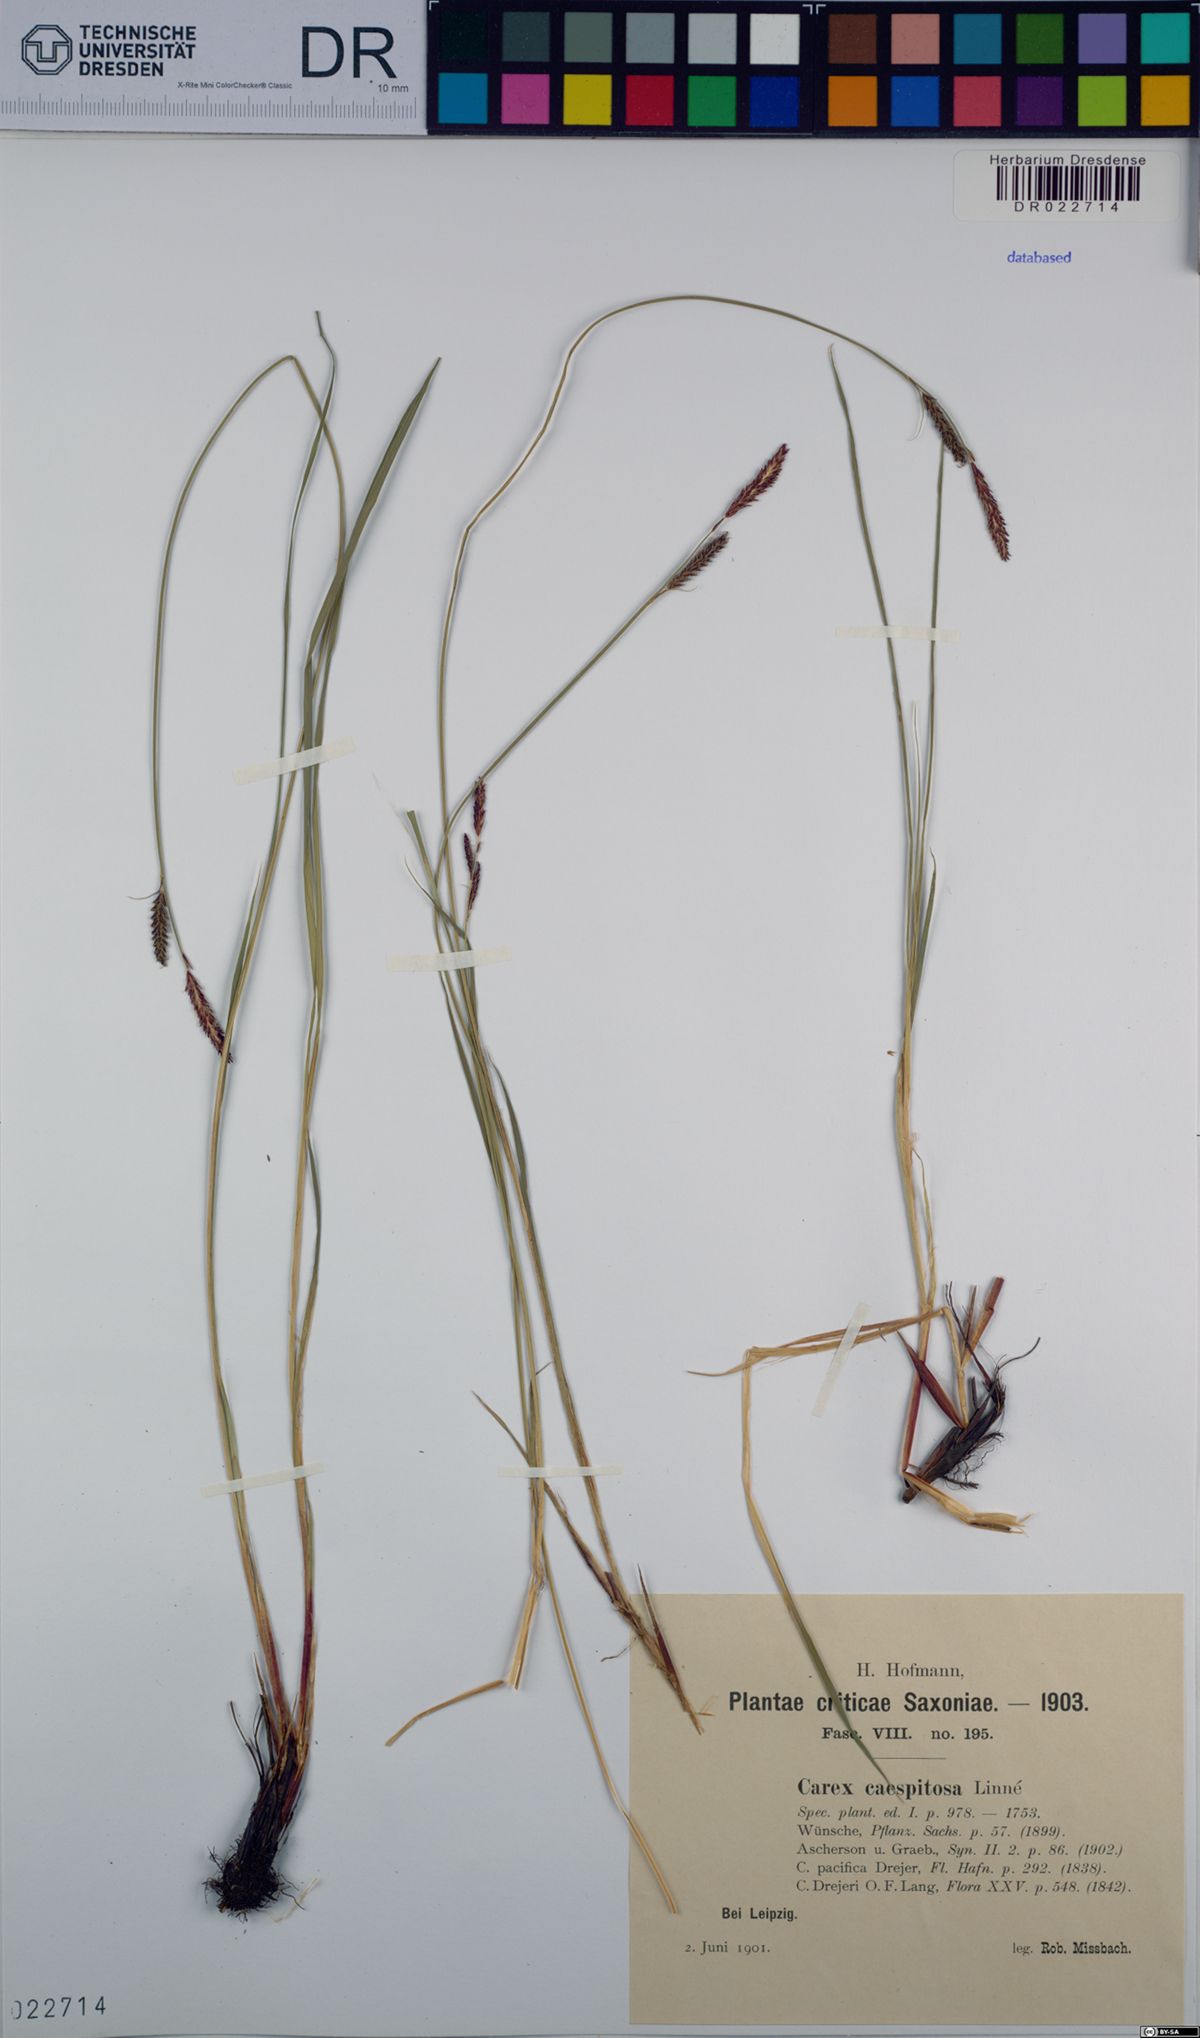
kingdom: Plantae
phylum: Tracheophyta
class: Liliopsida
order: Poales
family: Cyperaceae
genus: Carex
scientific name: Carex cespitosa
